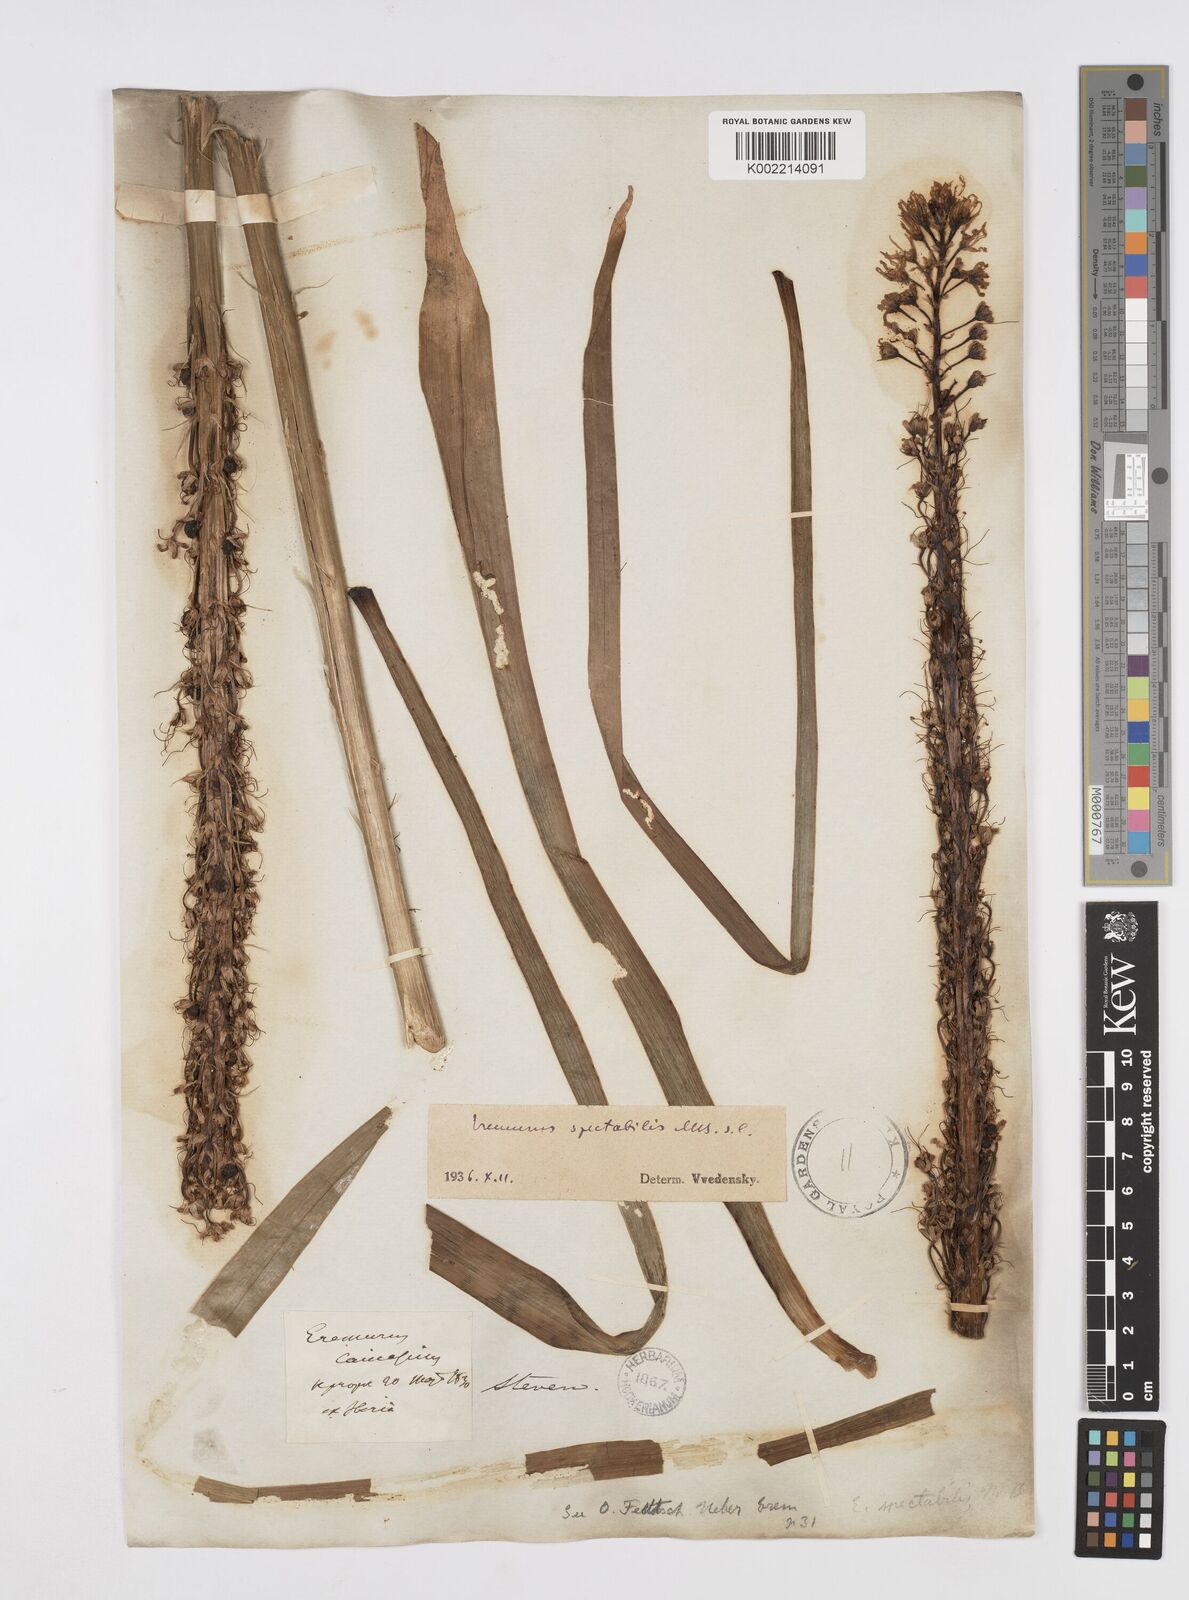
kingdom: Plantae
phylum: Tracheophyta
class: Liliopsida
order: Asparagales
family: Asphodelaceae
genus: Eremurus
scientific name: Eremurus spectabilis
